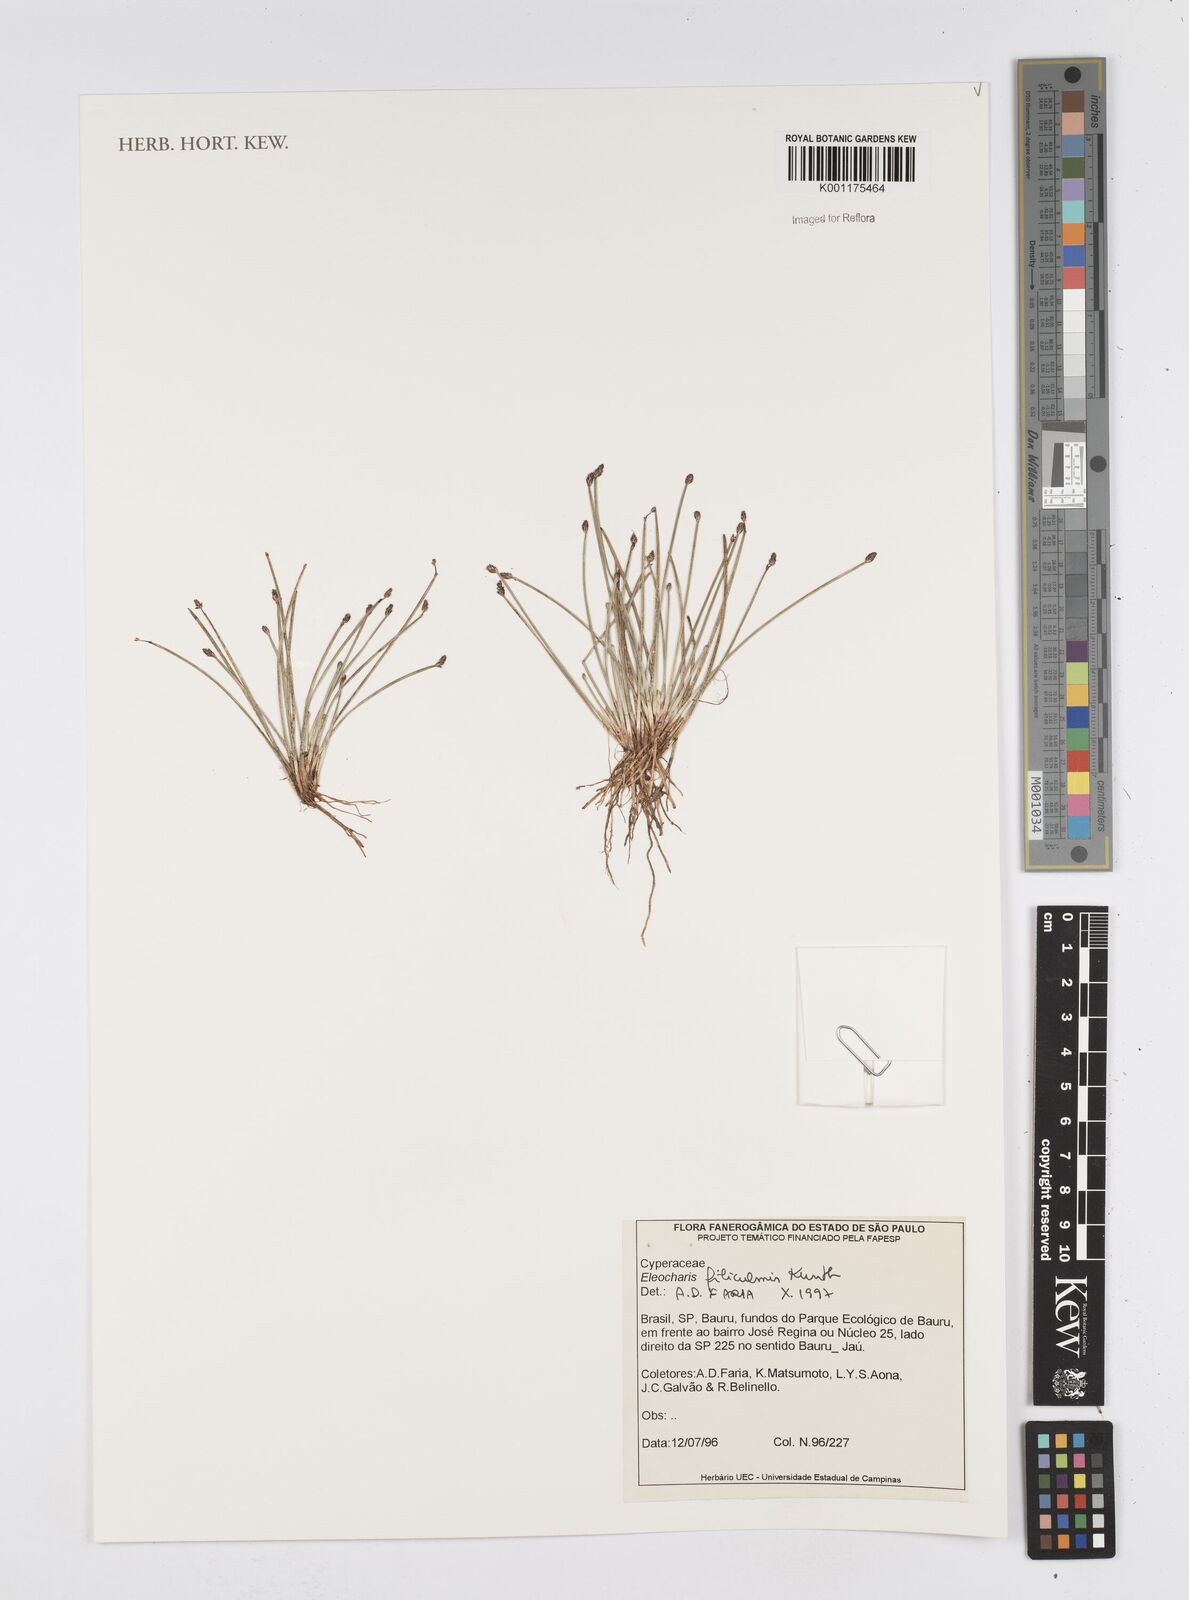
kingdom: Plantae
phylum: Tracheophyta
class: Liliopsida
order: Poales
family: Cyperaceae
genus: Eleocharis
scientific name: Eleocharis filiculmis
